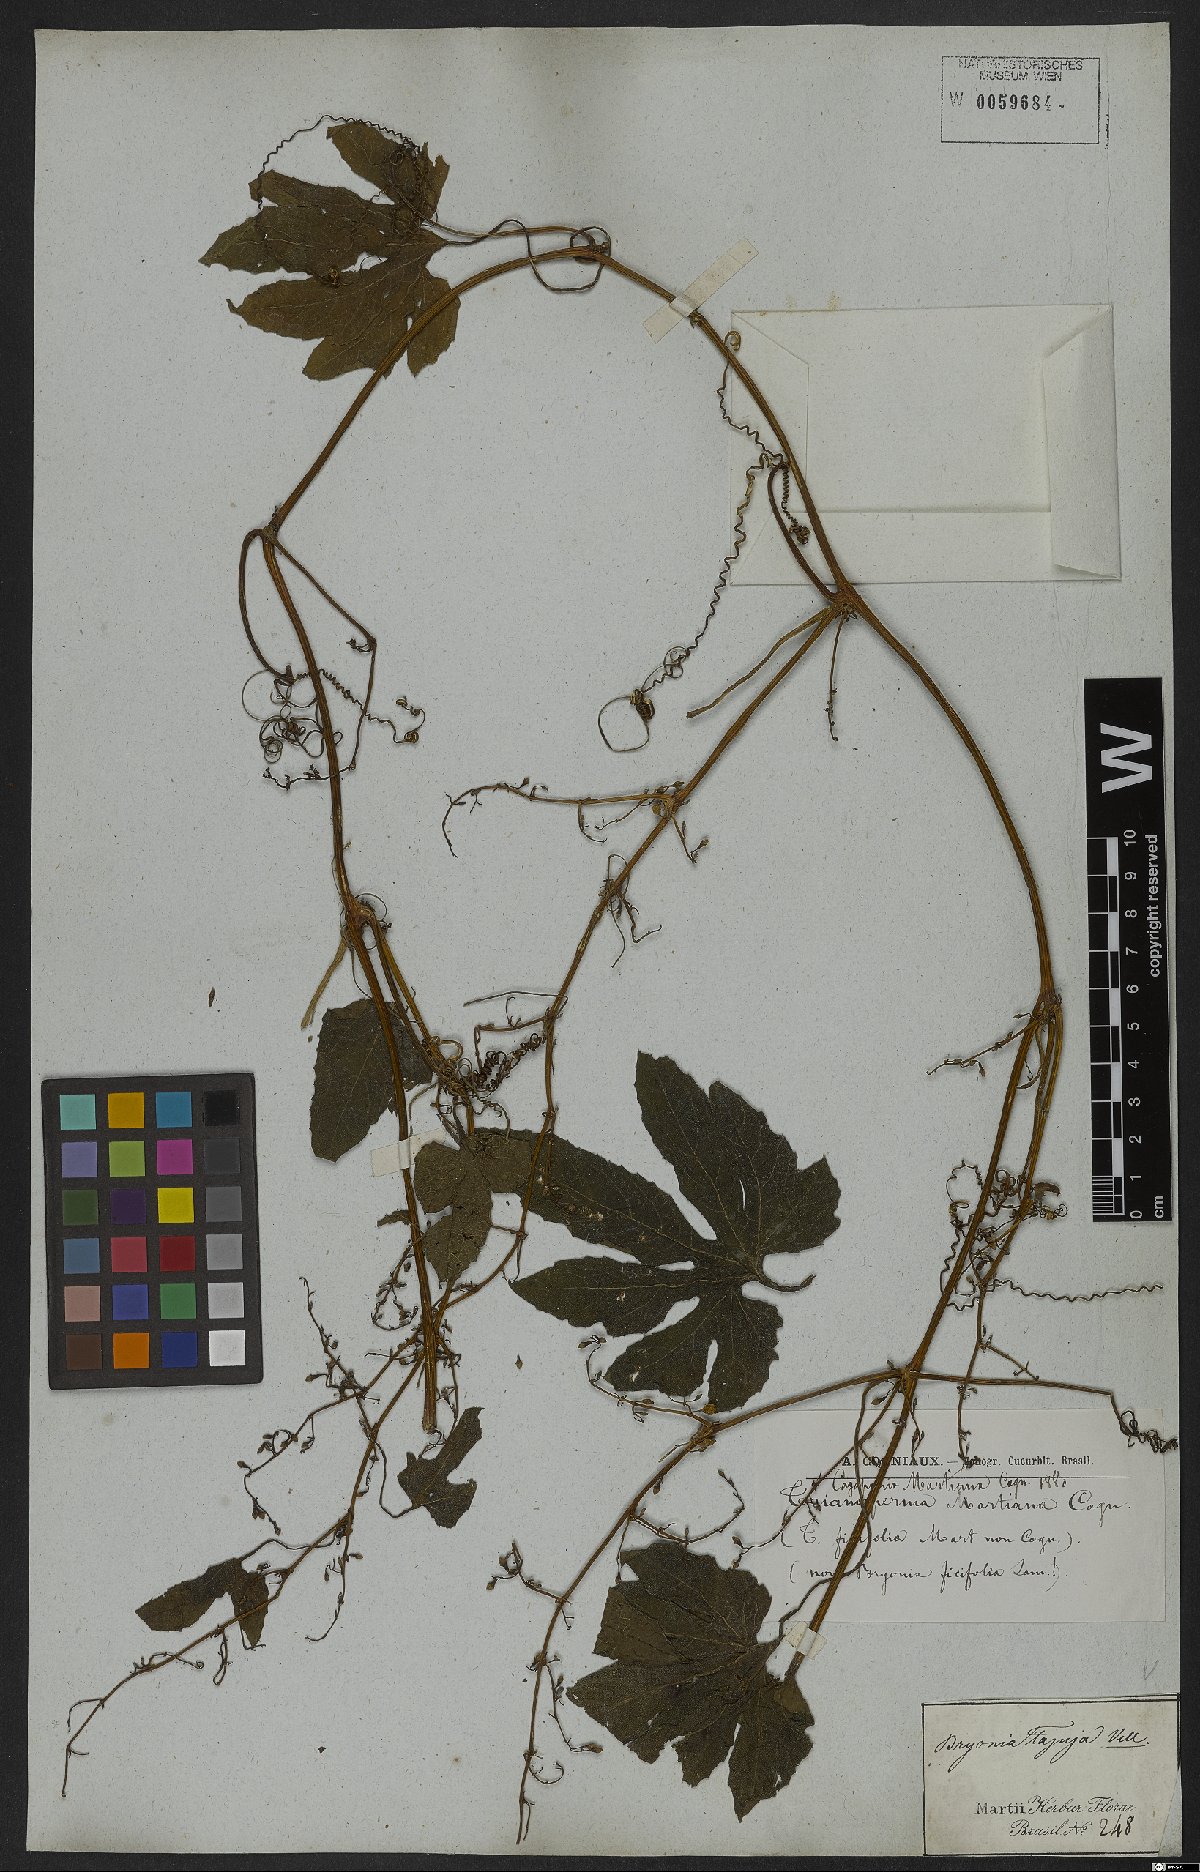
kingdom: Plantae
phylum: Tracheophyta
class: Magnoliopsida
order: Cucurbitales
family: Cucurbitaceae
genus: Cayaponia
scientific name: Cayaponia martiana
